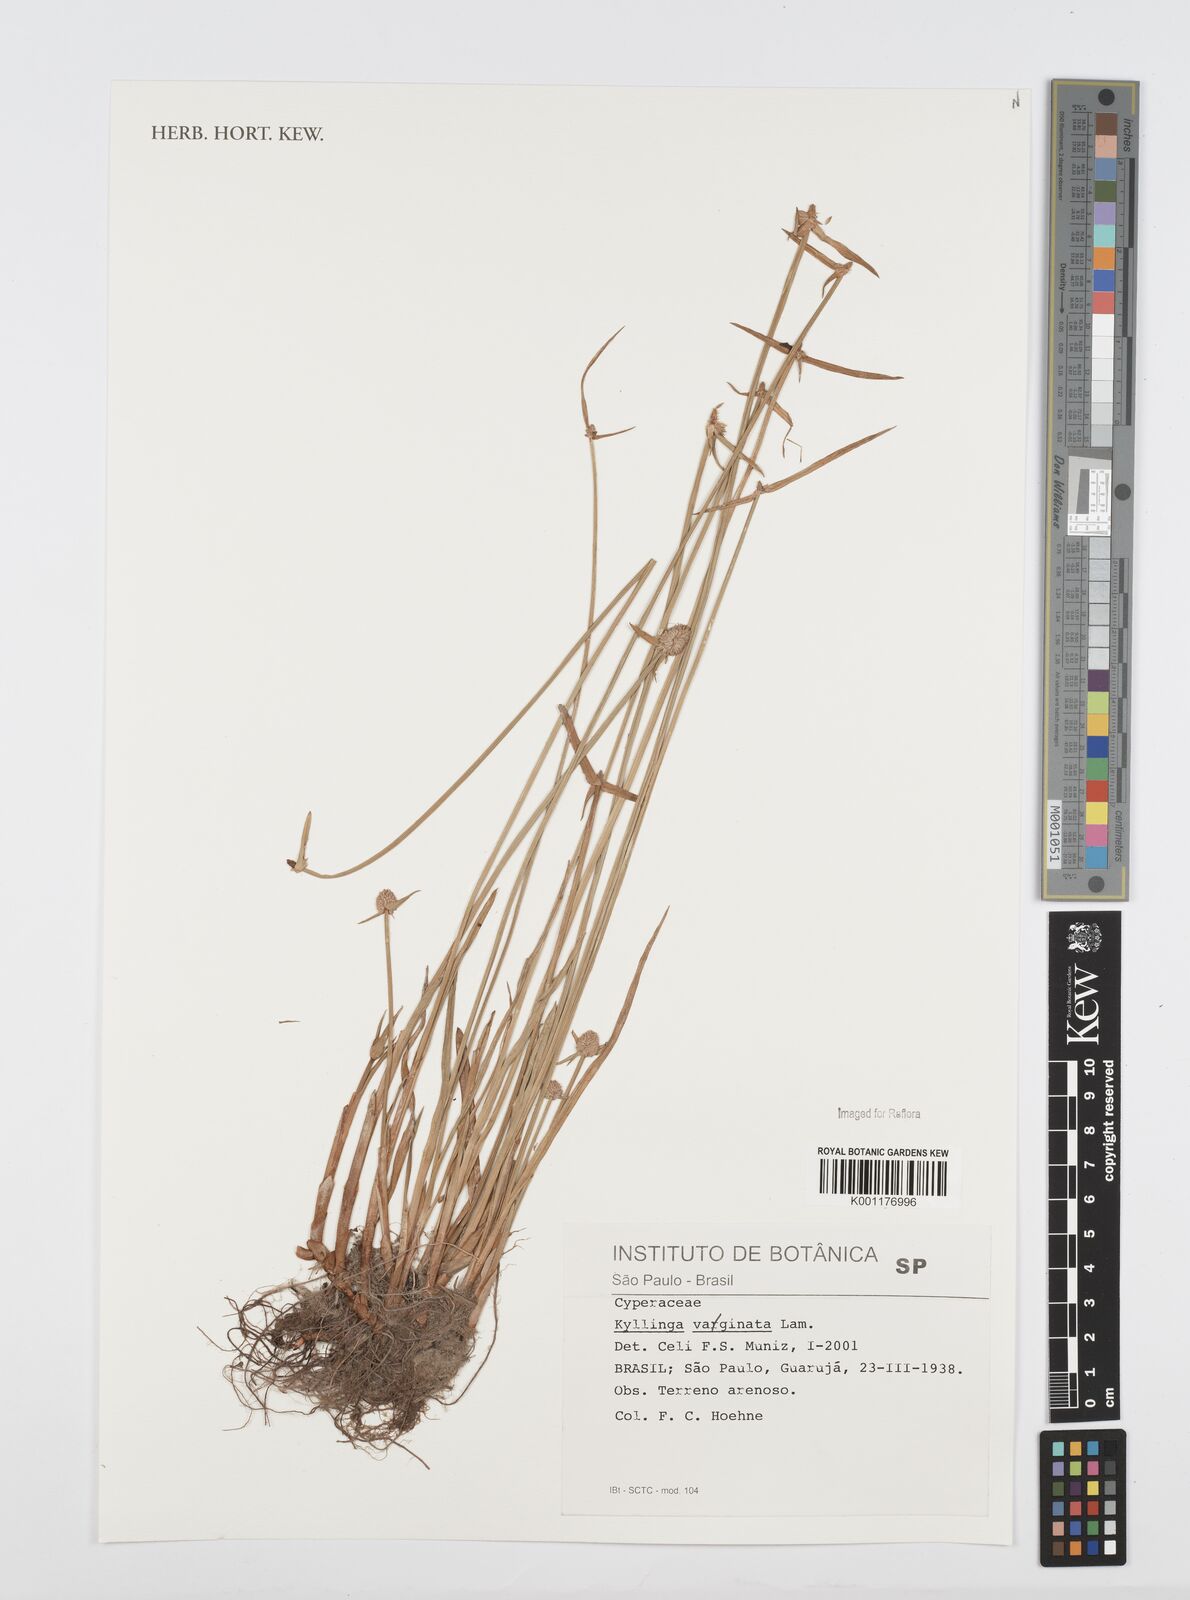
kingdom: Plantae
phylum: Tracheophyta
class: Liliopsida
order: Poales
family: Cyperaceae
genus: Cyperus
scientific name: Cyperus obtusatus
